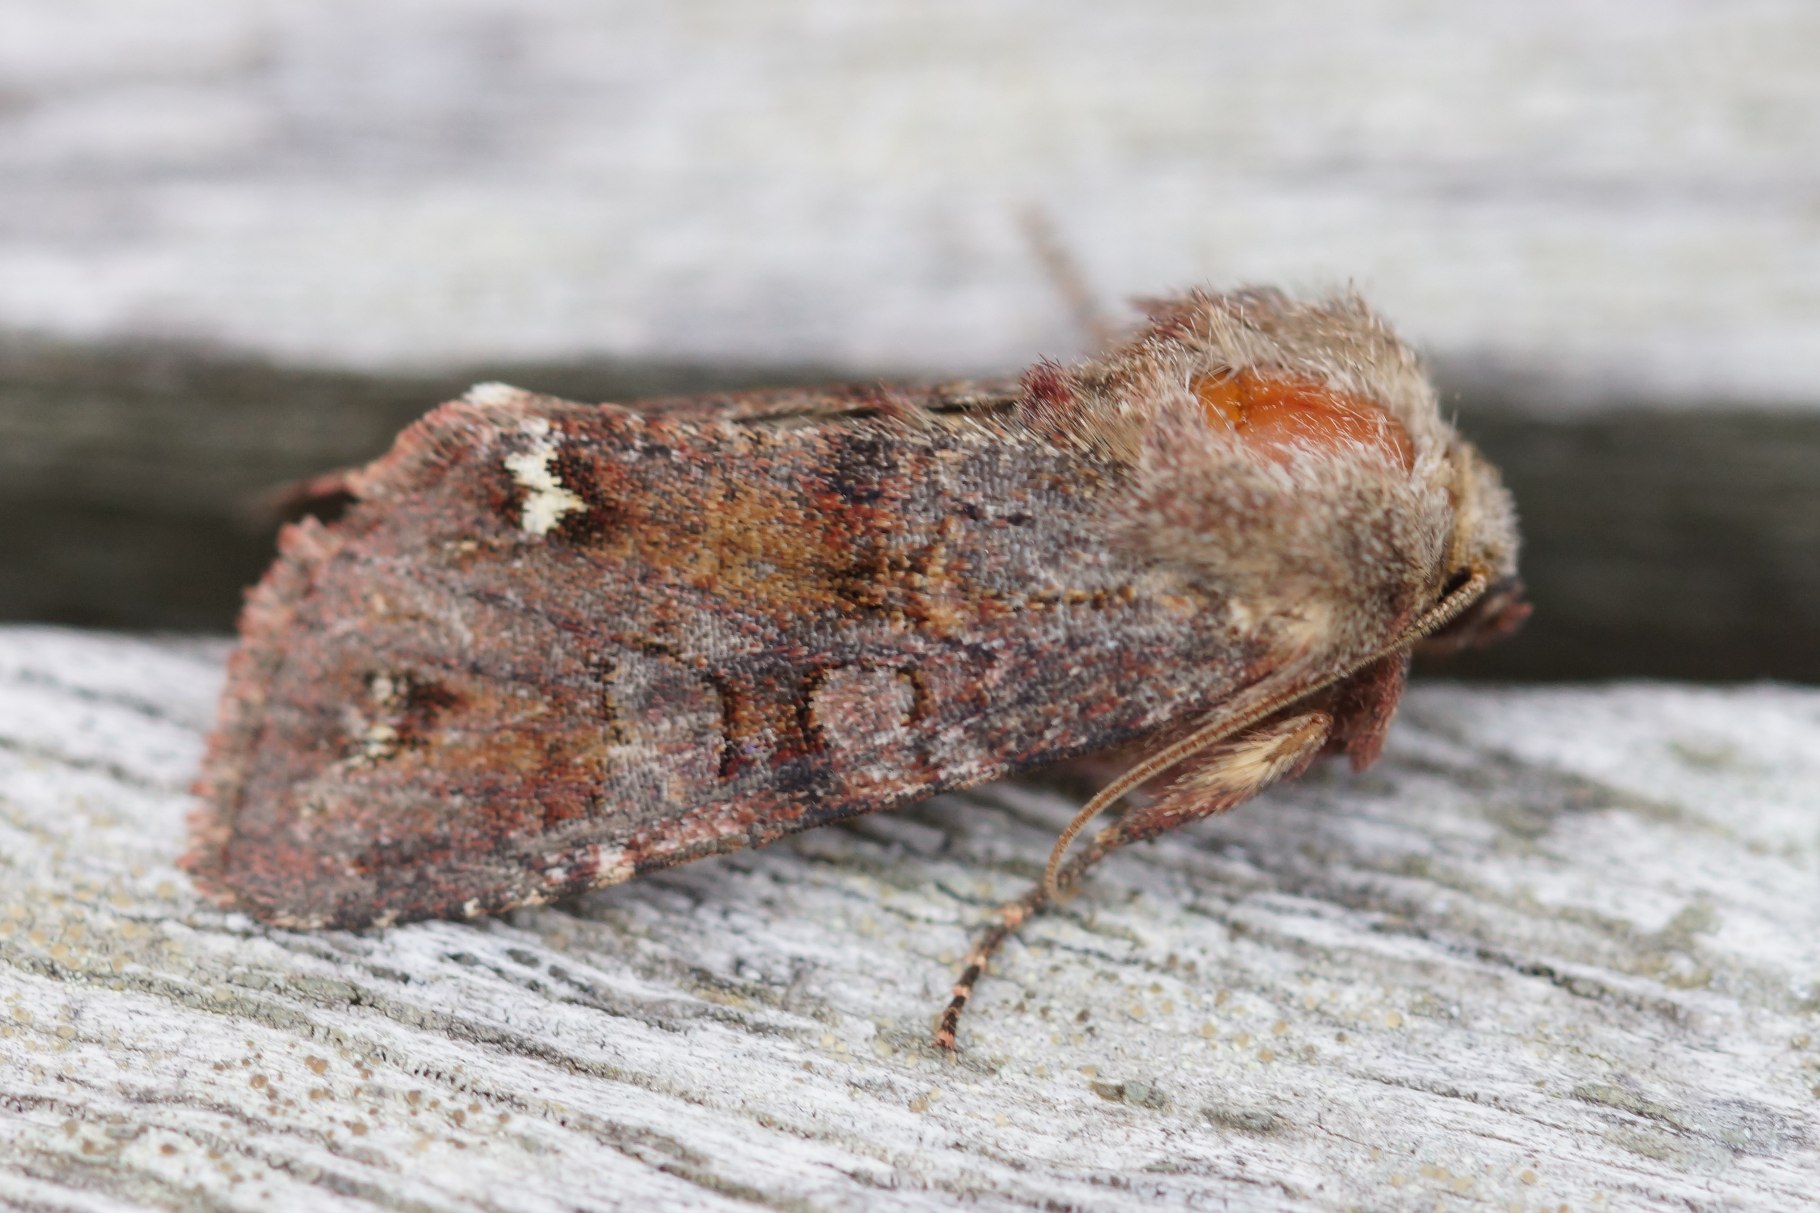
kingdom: Animalia
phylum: Arthropoda
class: Insecta
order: Lepidoptera
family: Noctuidae
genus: Ceramica
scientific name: Ceramica pisi
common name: Ærteugle
